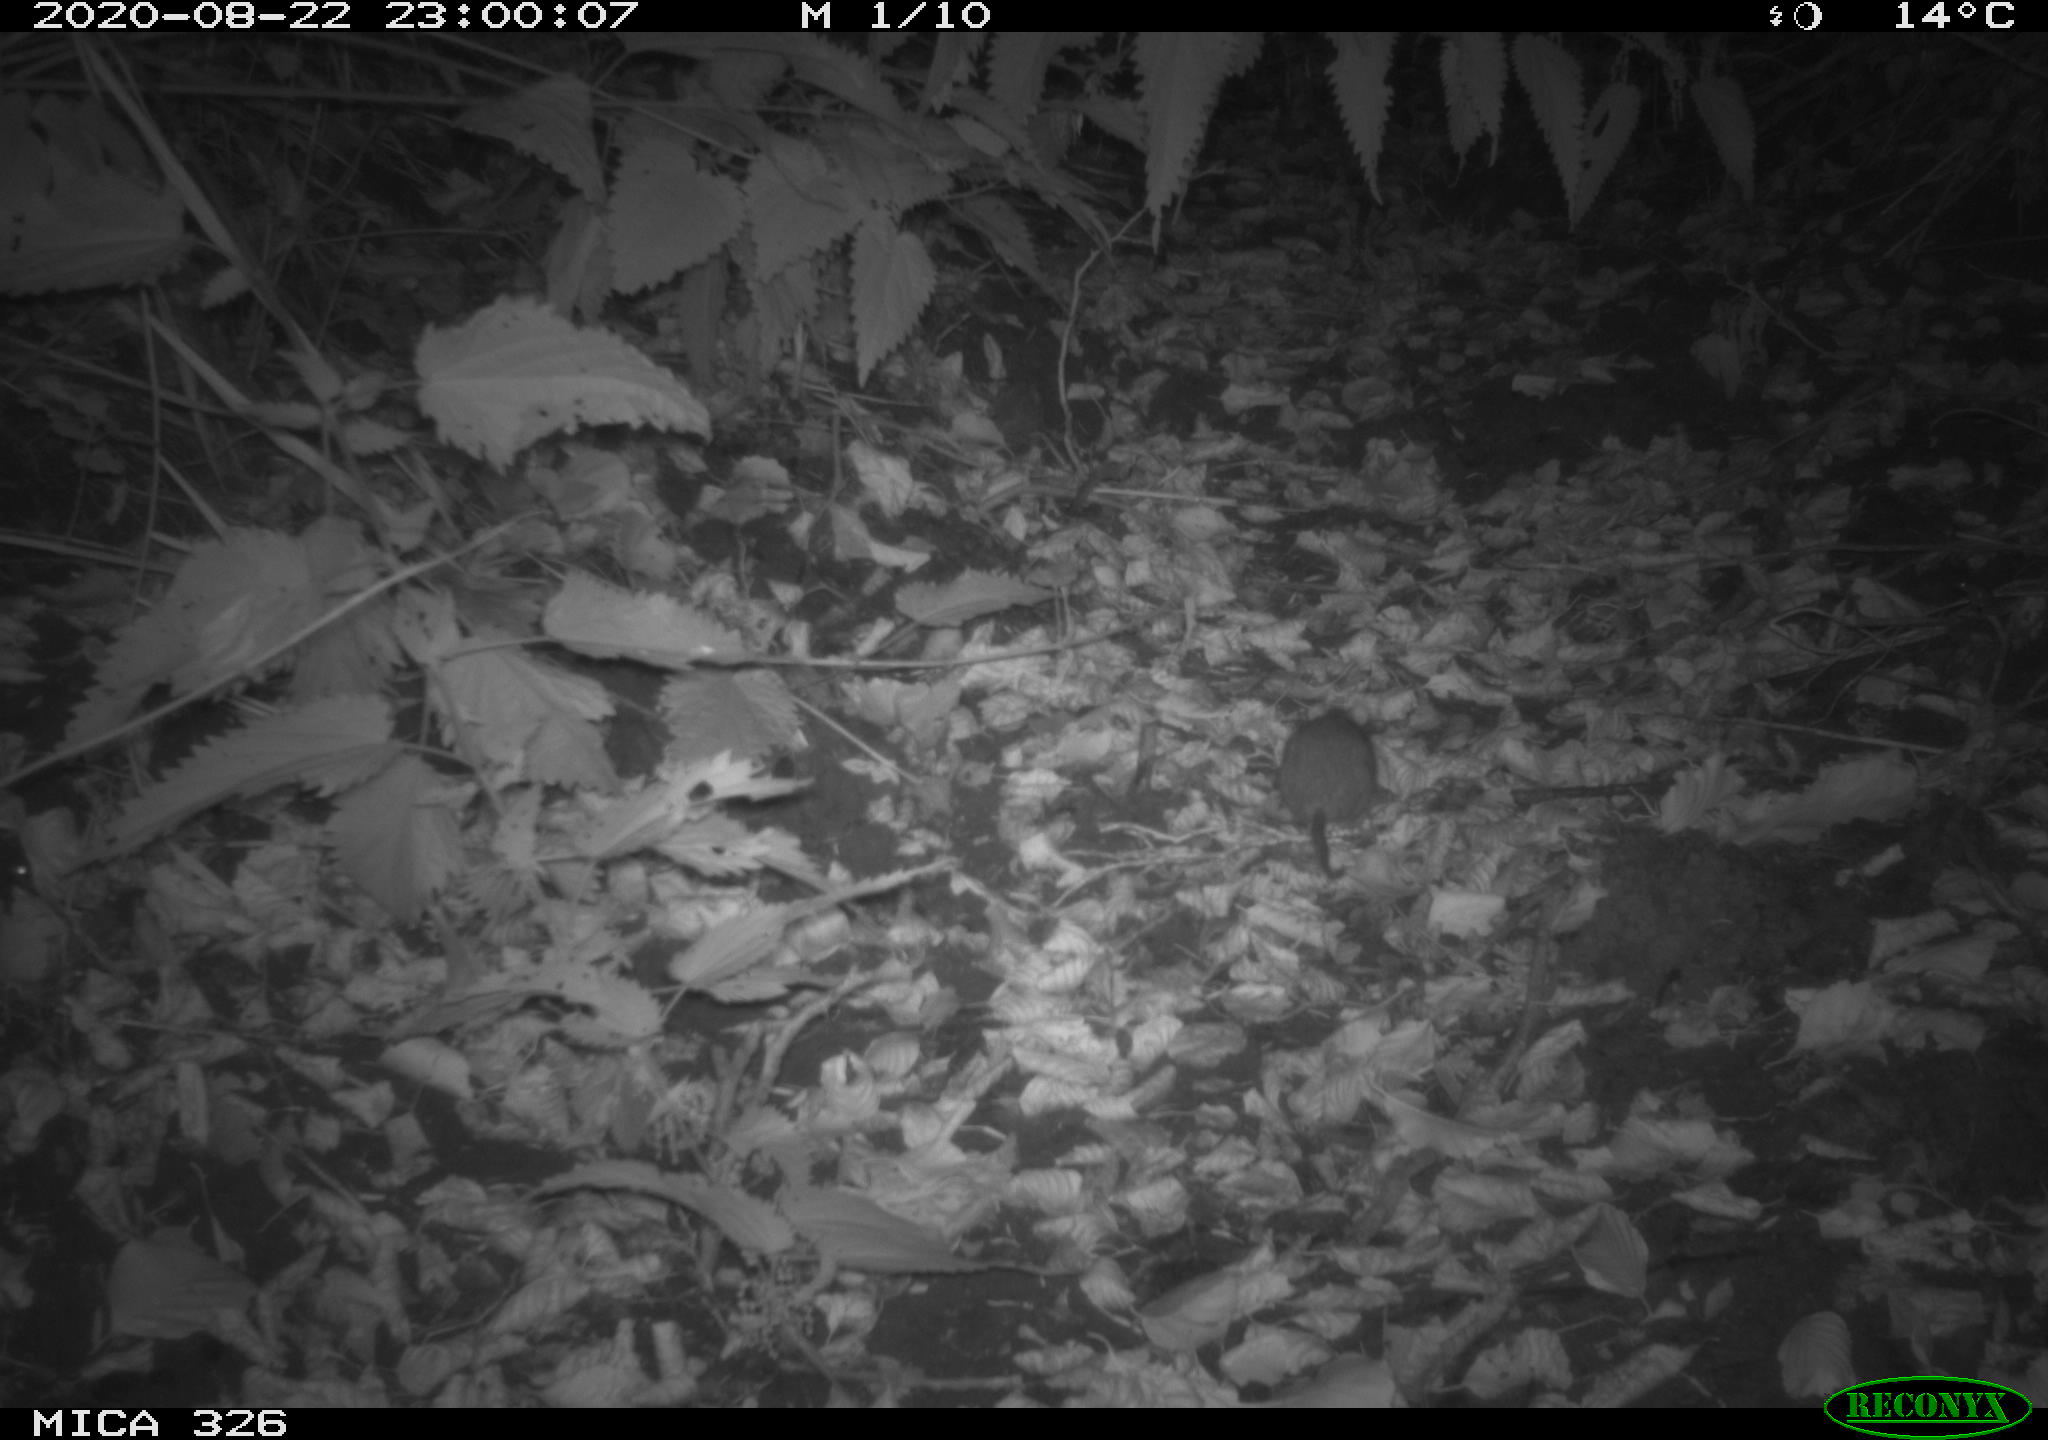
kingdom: Animalia
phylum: Chordata
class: Mammalia
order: Rodentia
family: Muridae
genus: Rattus
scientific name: Rattus norvegicus
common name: Brown rat
